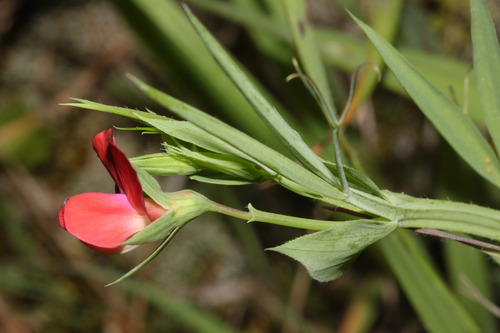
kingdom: Plantae
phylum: Tracheophyta
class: Magnoliopsida
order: Fabales
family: Fabaceae
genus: Lathyrus
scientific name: Lathyrus cicera
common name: Red vetchling
